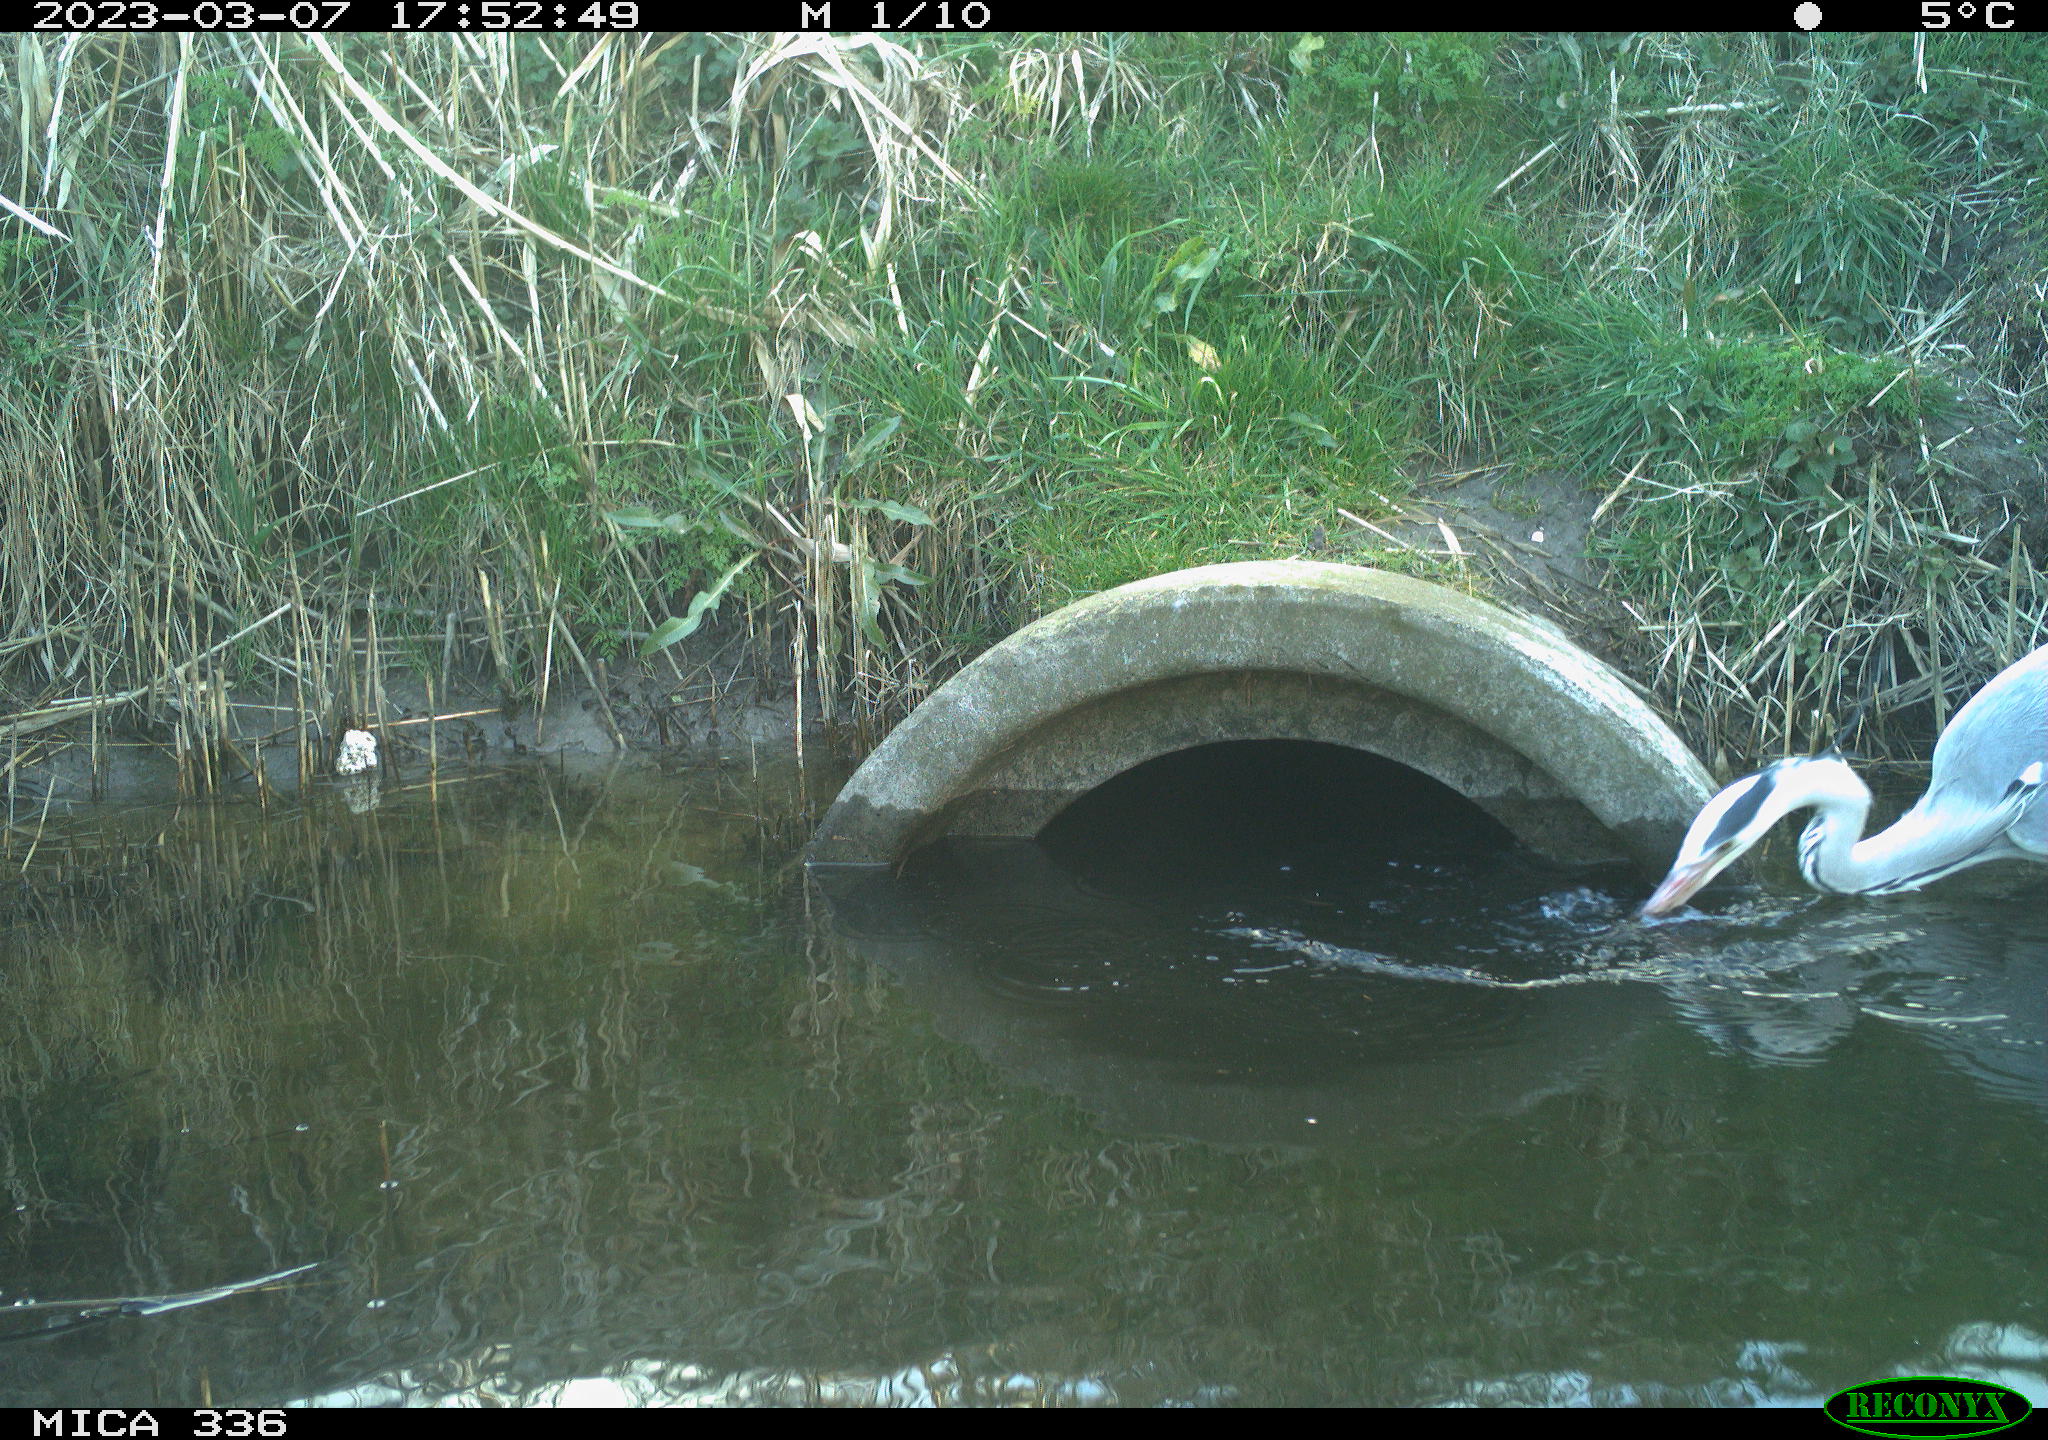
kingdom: Animalia
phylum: Chordata
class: Aves
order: Pelecaniformes
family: Ardeidae
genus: Ardea
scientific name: Ardea cinerea
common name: Grey heron
